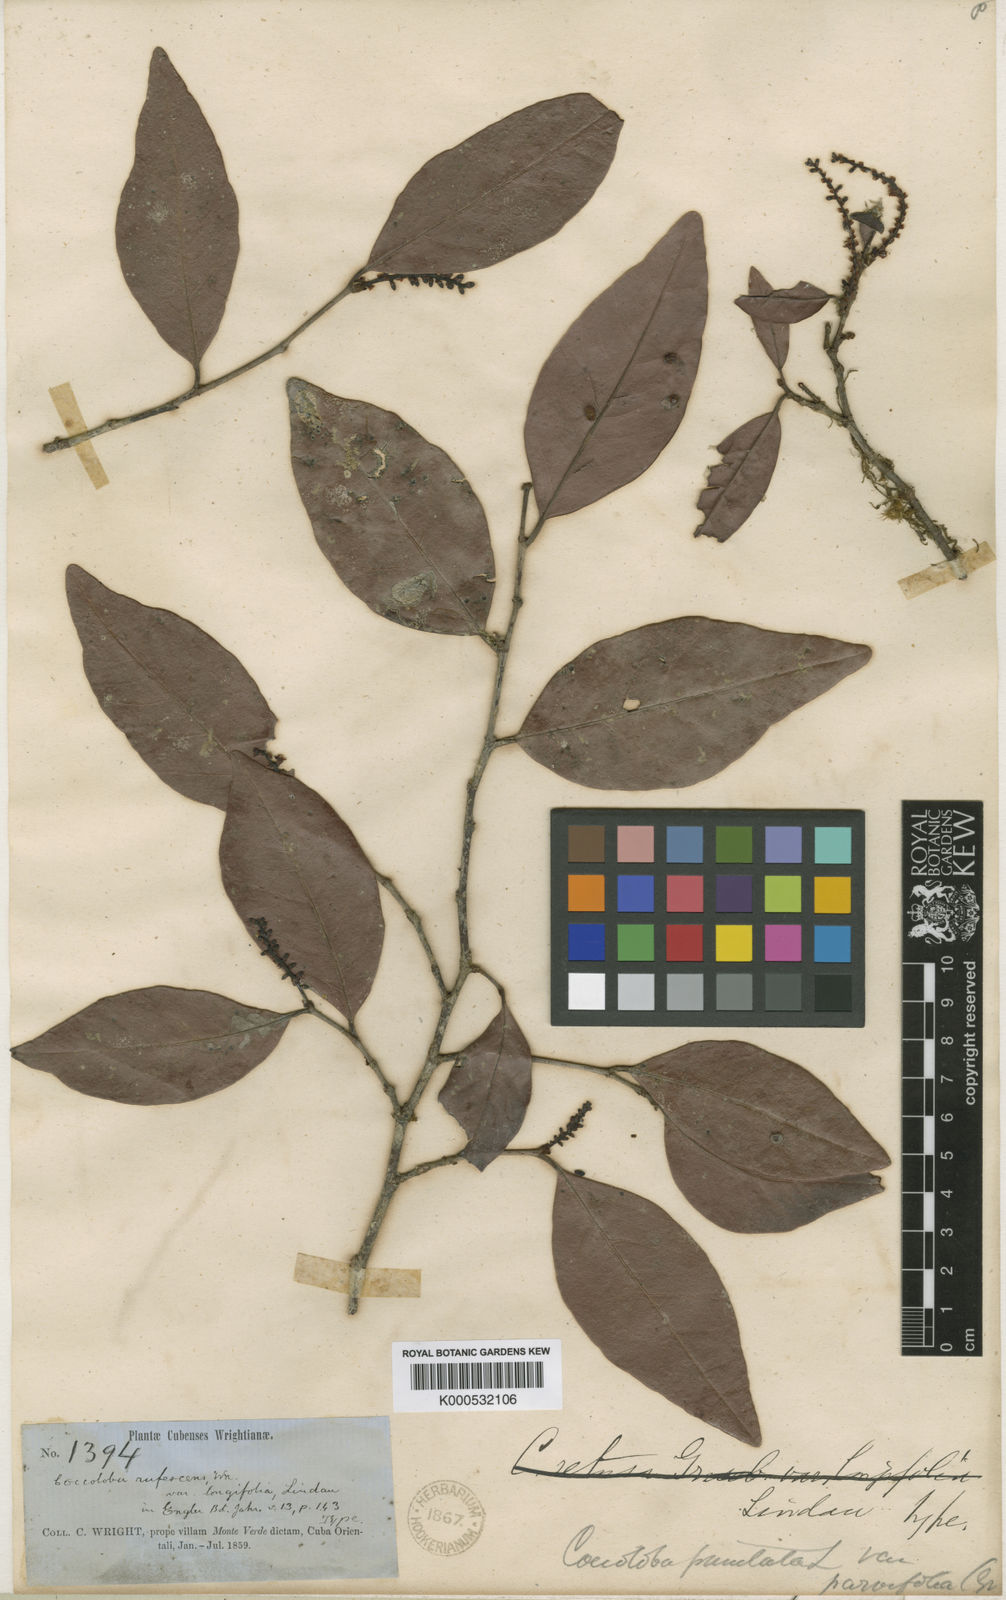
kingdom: Plantae
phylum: Tracheophyta
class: Magnoliopsida
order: Caryophyllales
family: Polygonaceae
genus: Coccoloba
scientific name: Coccoloba rufescens
